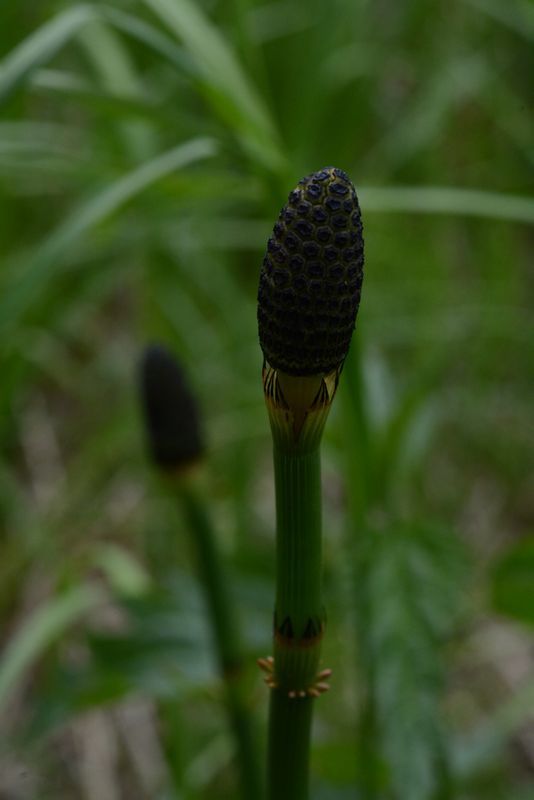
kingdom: Plantae
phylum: Tracheophyta
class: Polypodiopsida
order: Equisetales
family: Equisetaceae
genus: Equisetum
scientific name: Equisetum palustre
